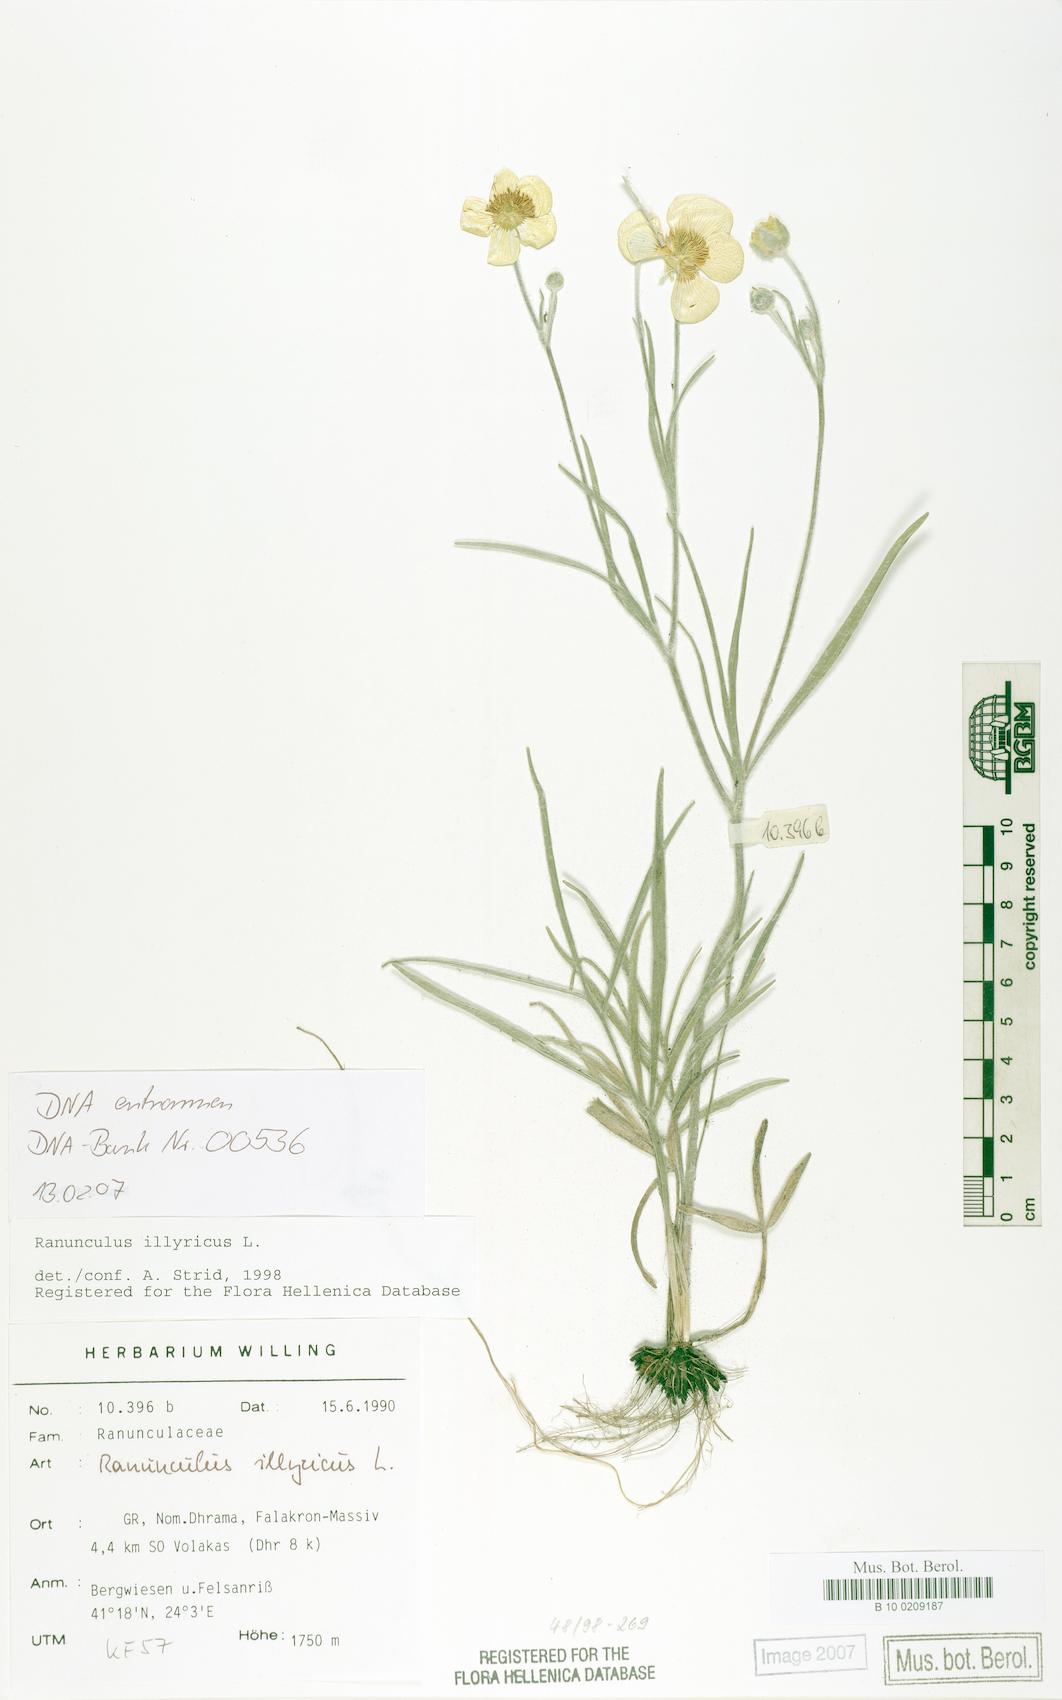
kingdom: Plantae
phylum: Tracheophyta
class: Magnoliopsida
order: Ranunculales
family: Ranunculaceae
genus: Ranunculus
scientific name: Ranunculus illyricus
